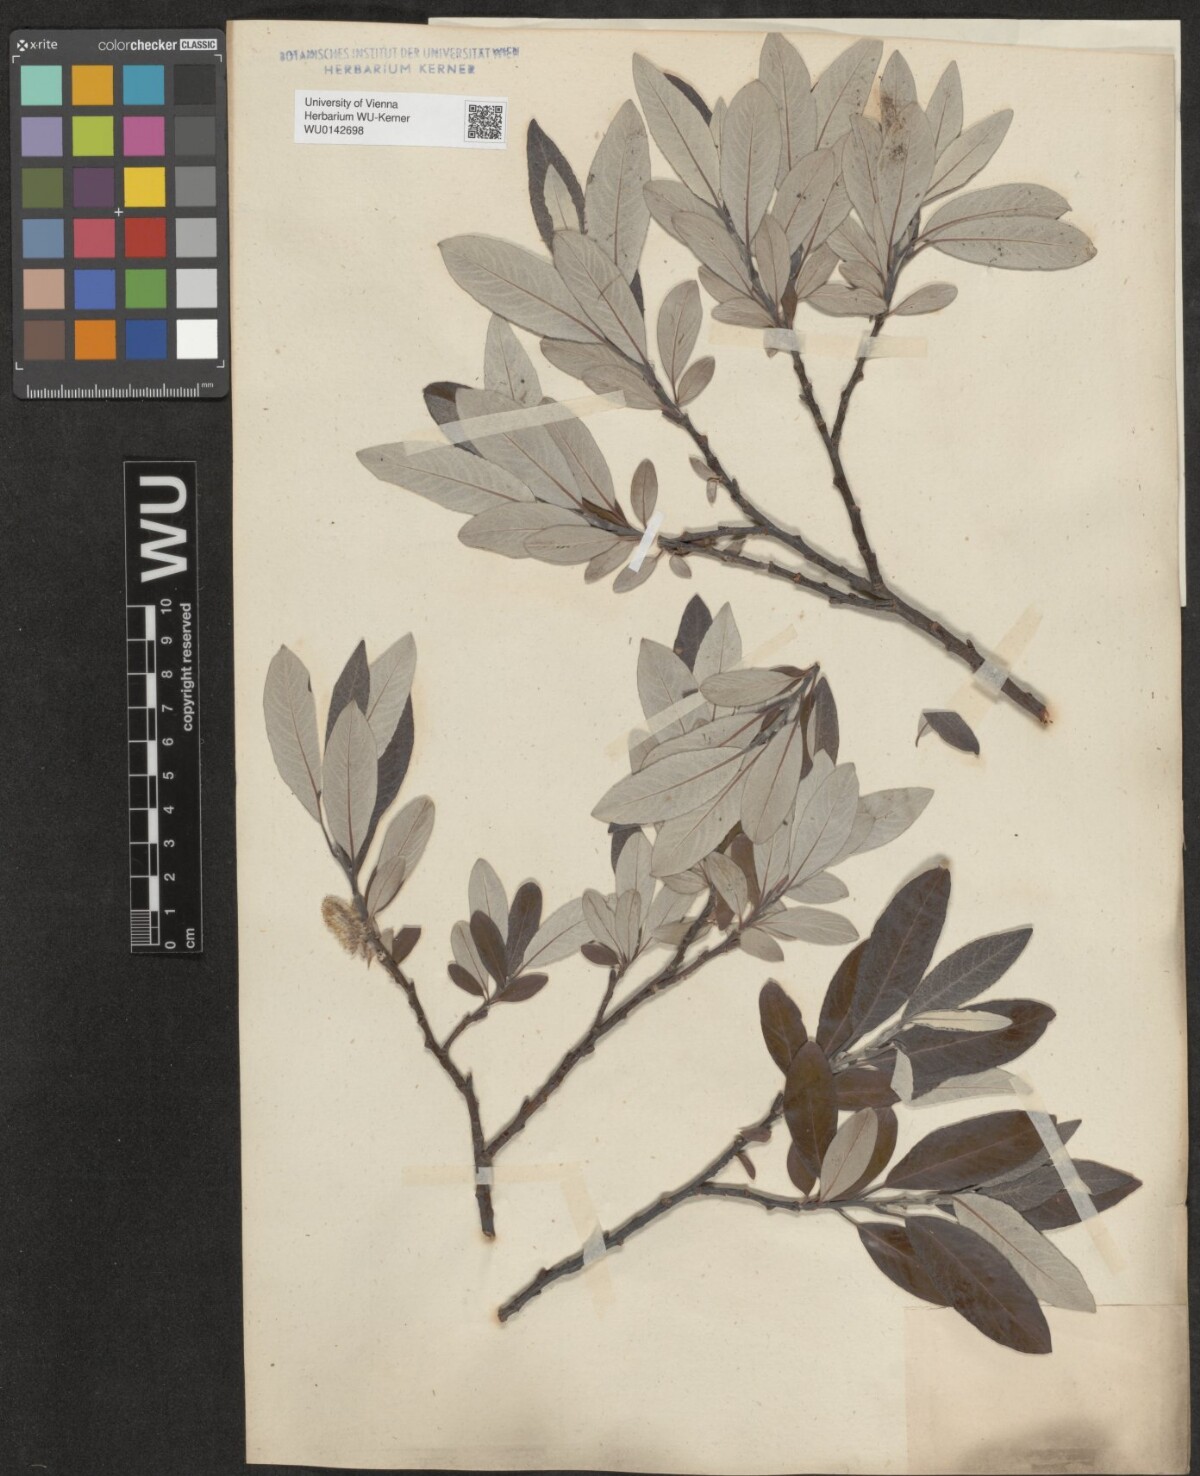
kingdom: Plantae
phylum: Tracheophyta
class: Magnoliopsida
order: Malpighiales
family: Salicaceae
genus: Salix
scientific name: Salix helvetica
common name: Swiss willow
